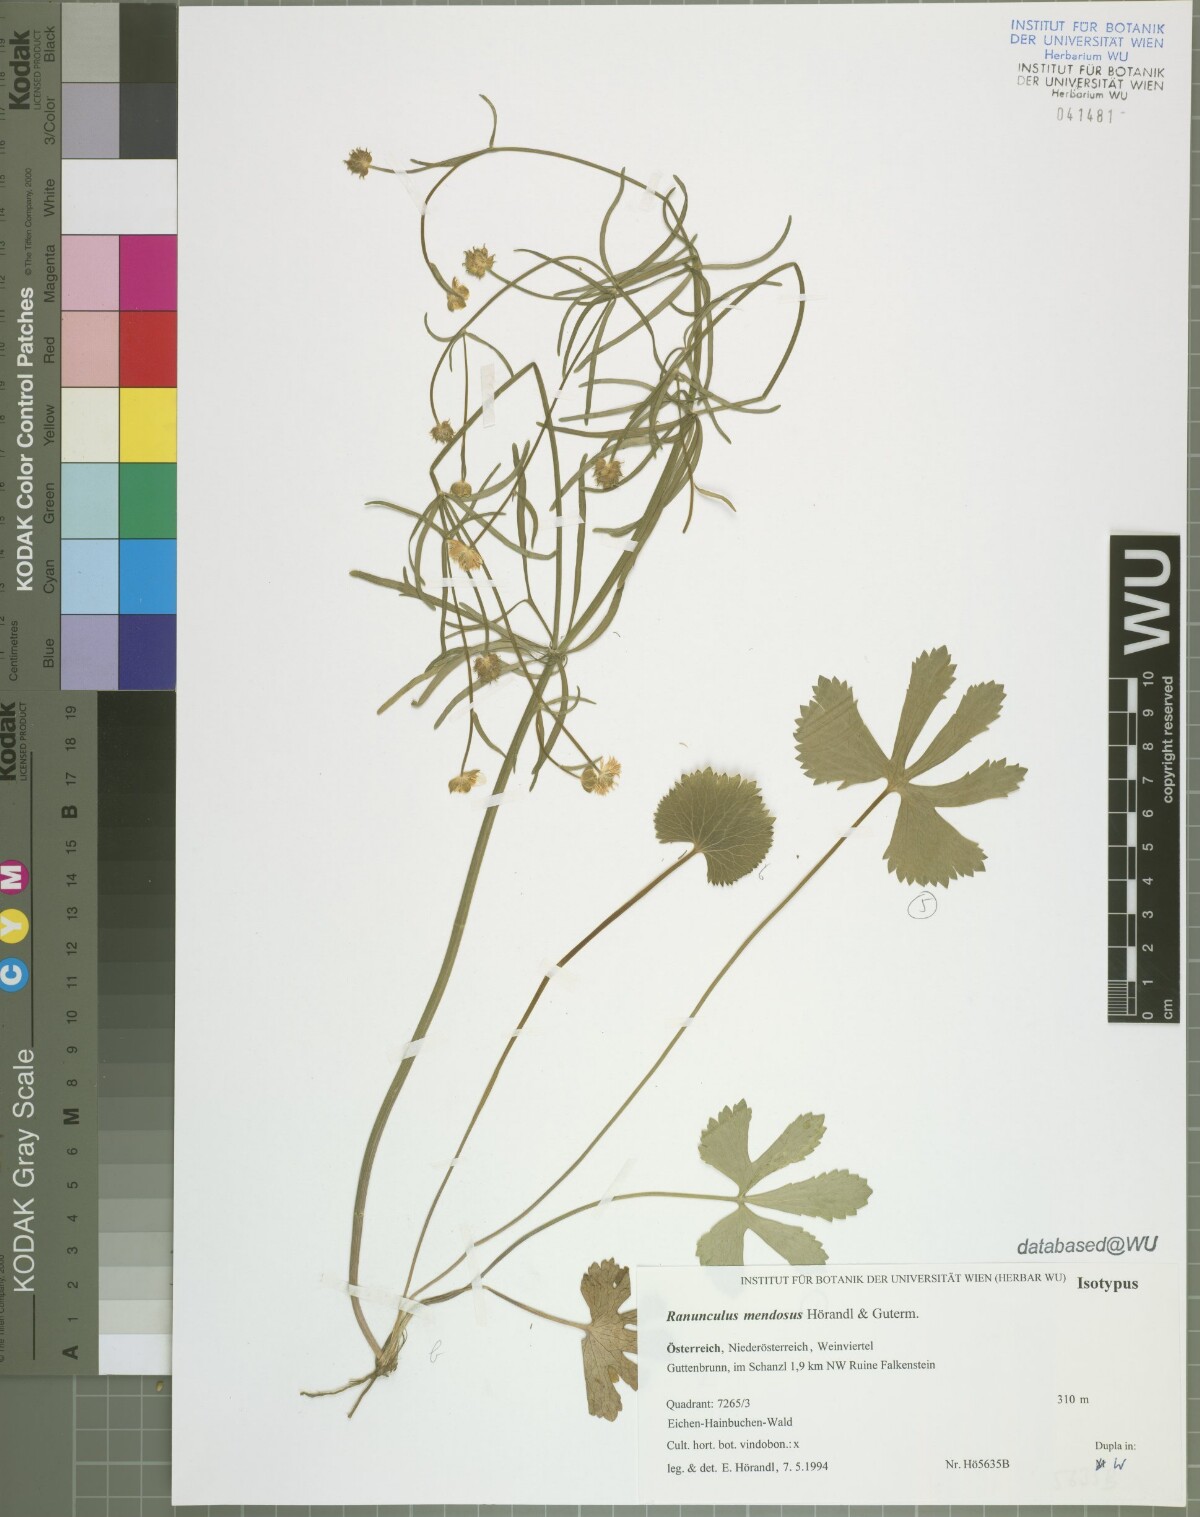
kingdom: Plantae
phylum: Tracheophyta
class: Magnoliopsida
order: Ranunculales
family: Ranunculaceae
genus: Ranunculus
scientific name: Ranunculus mendosus
